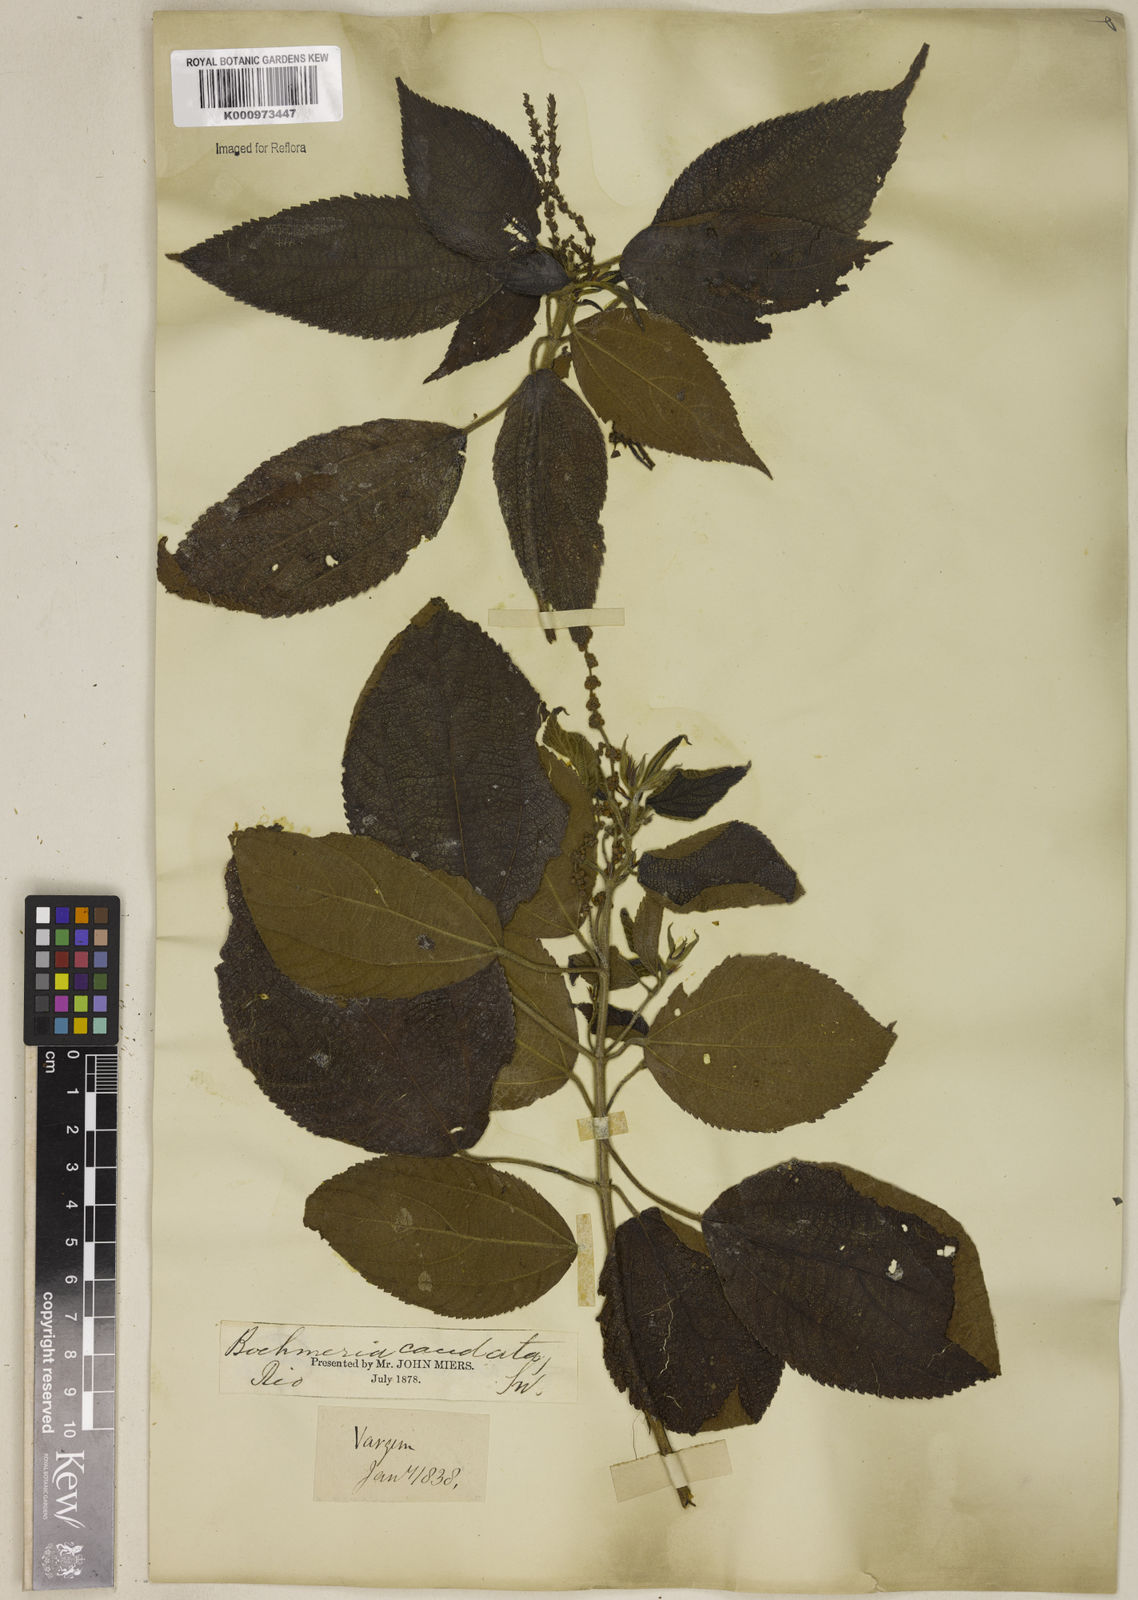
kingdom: Plantae
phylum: Tracheophyta
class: Magnoliopsida
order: Rosales
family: Urticaceae
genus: Boehmeria
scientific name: Boehmeria caudata
